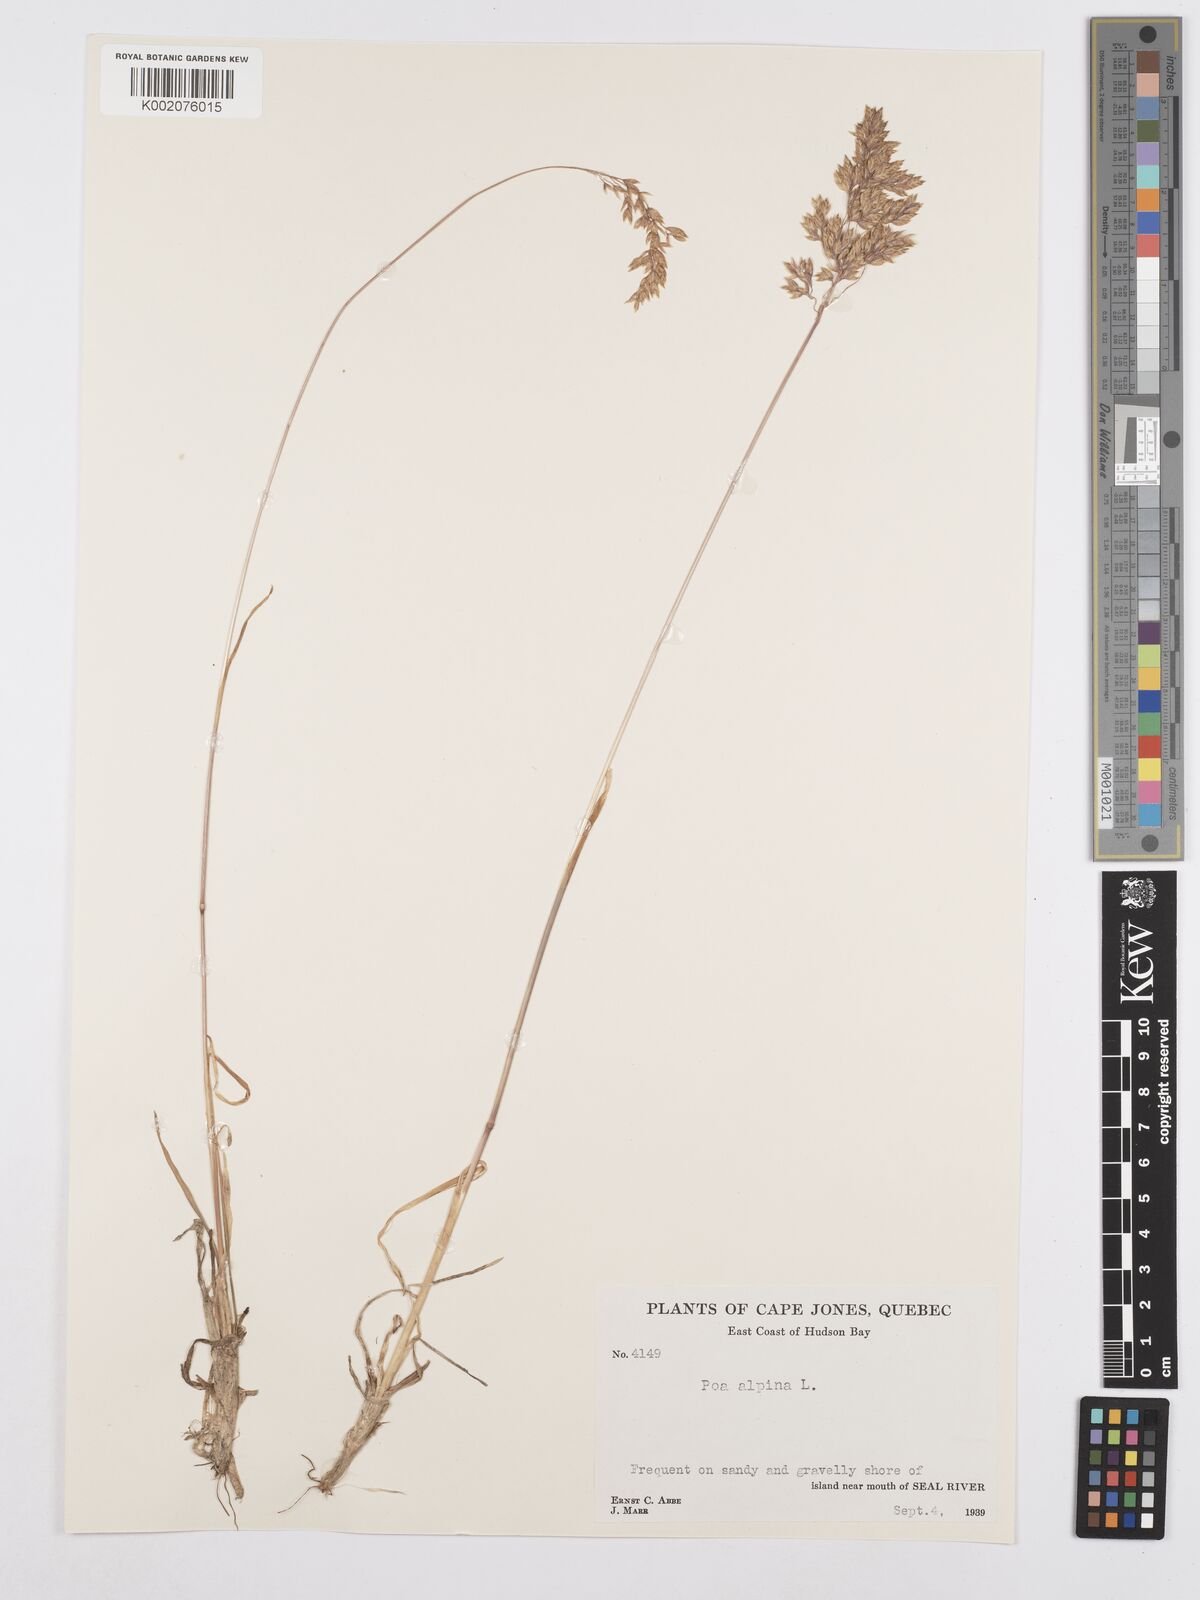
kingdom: Plantae
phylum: Tracheophyta
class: Liliopsida
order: Poales
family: Poaceae
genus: Poa
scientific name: Poa alpina
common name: Alpine bluegrass
